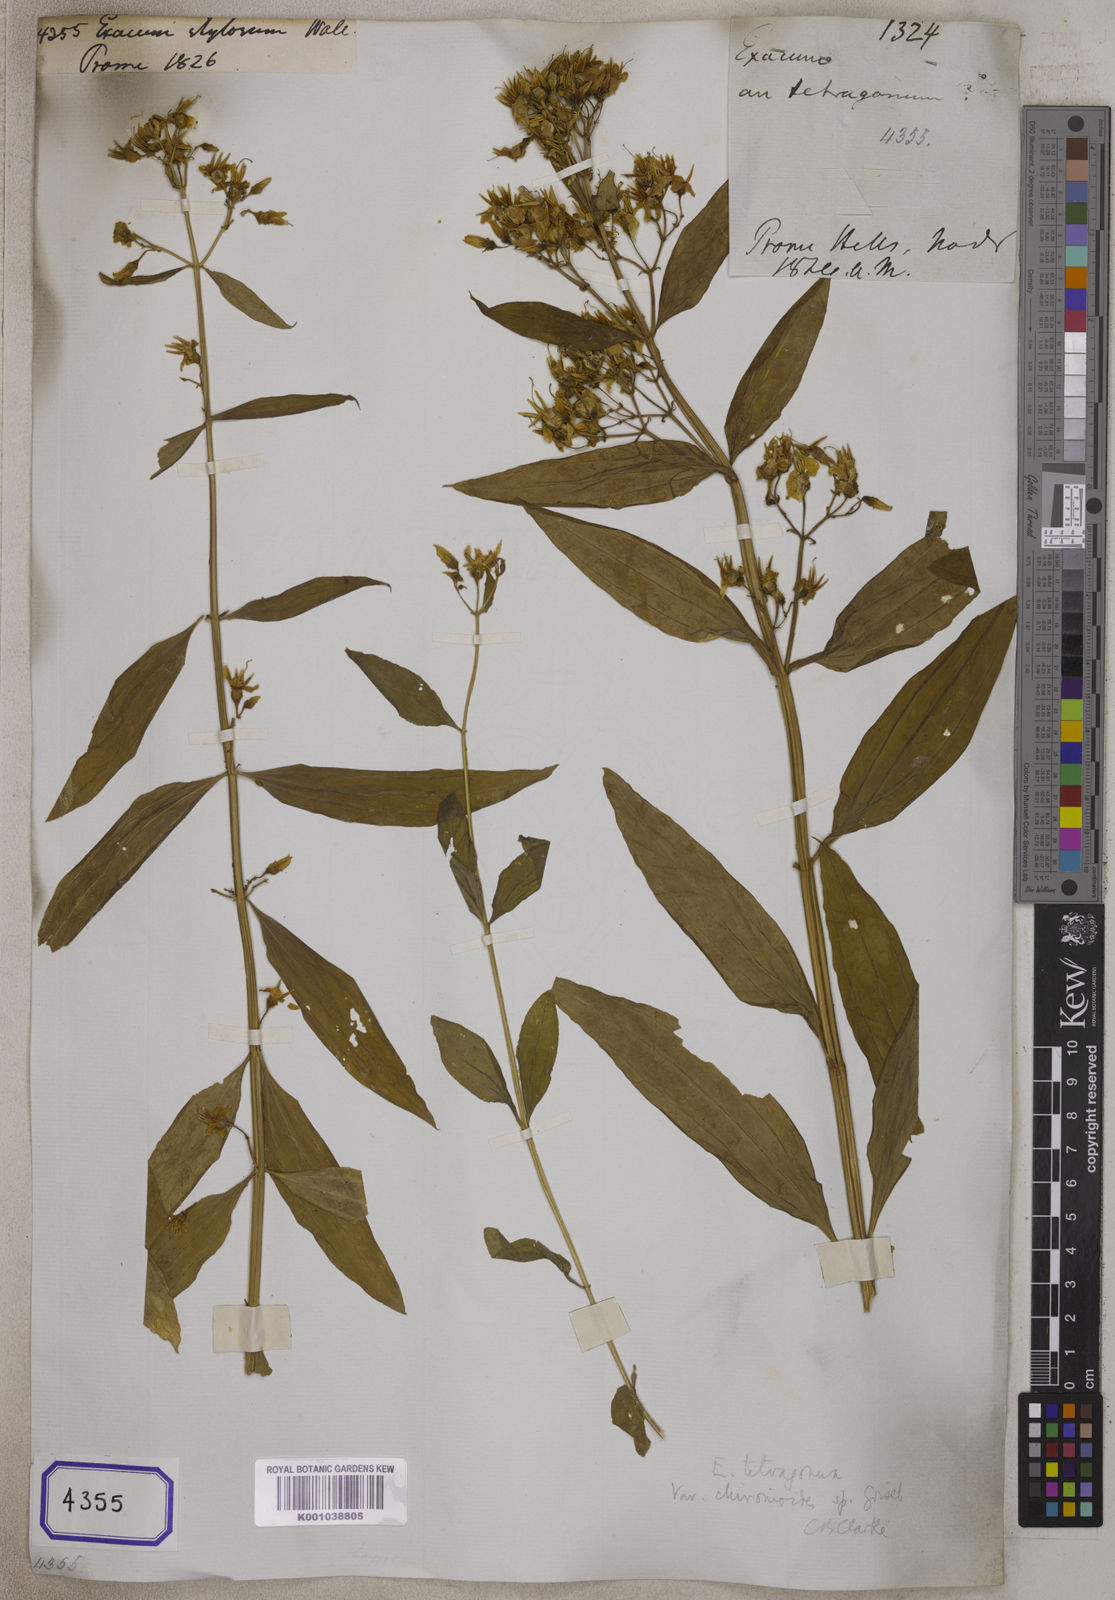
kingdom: Plantae
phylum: Tracheophyta
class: Magnoliopsida
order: Gentianales
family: Gentianaceae
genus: Exacum
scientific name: Exacum
